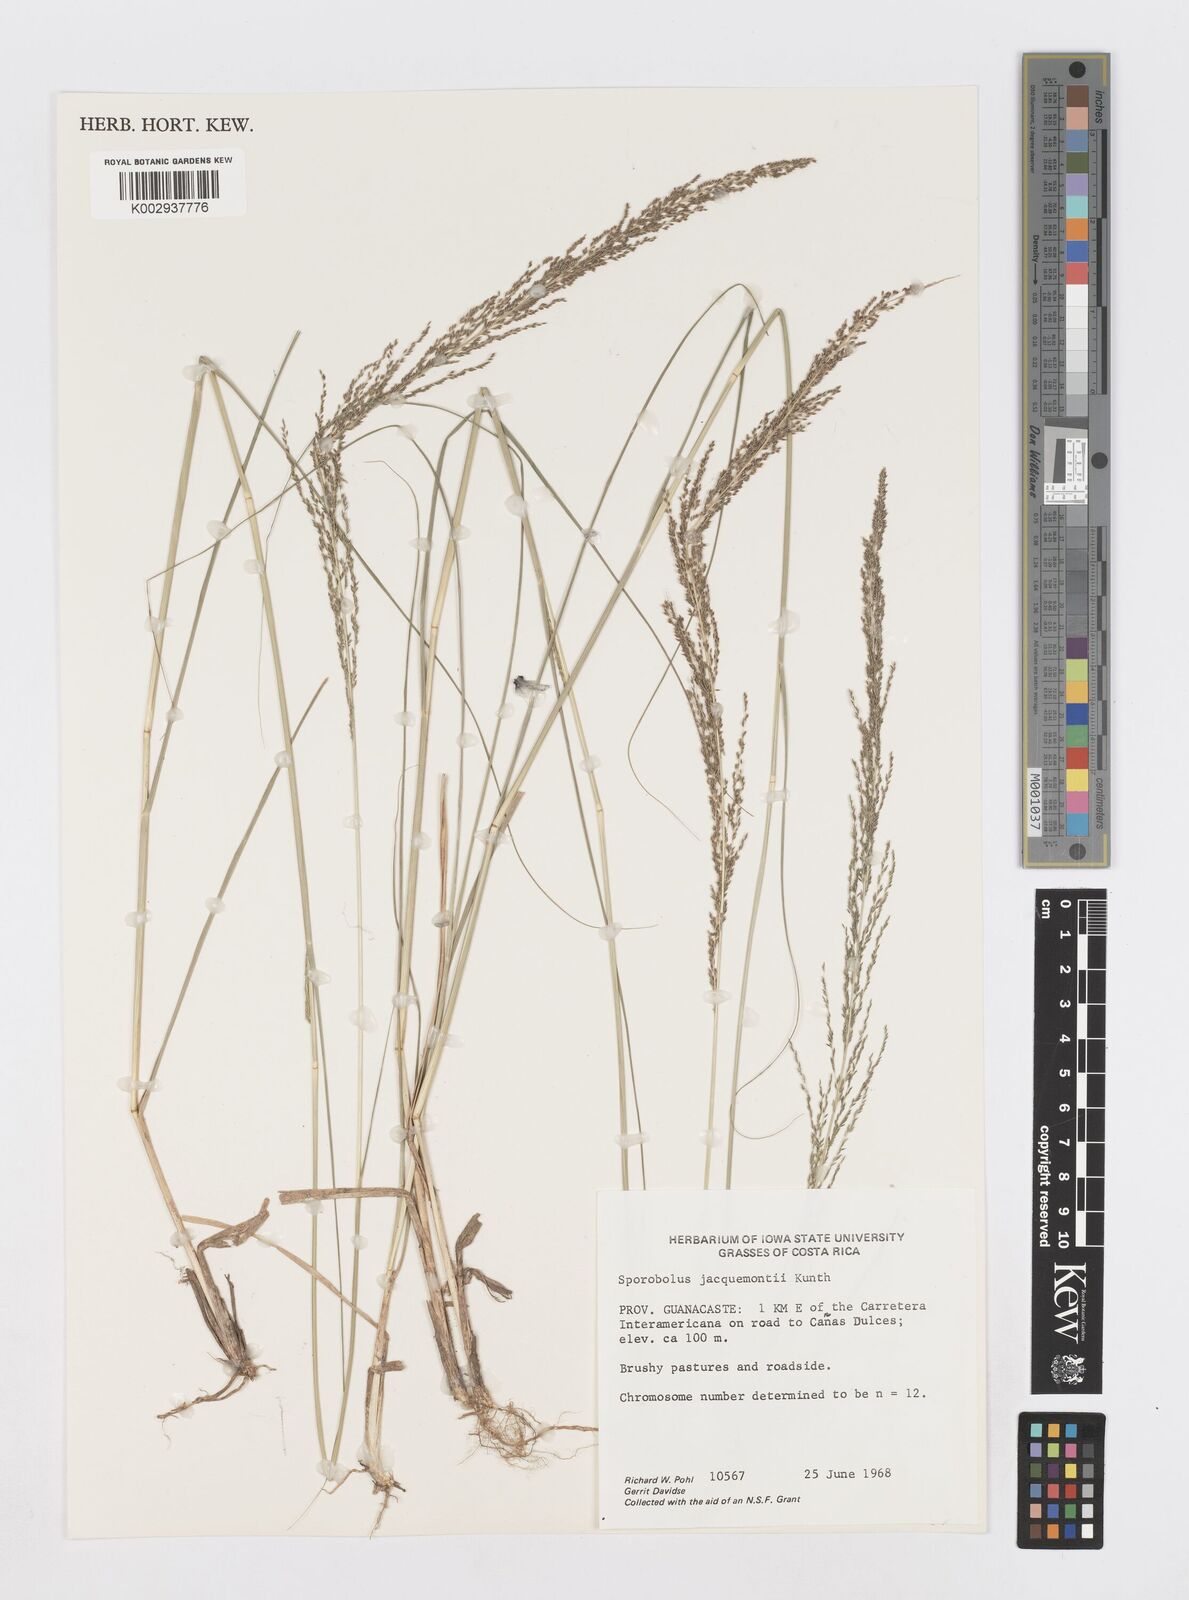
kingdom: Plantae
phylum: Tracheophyta
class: Liliopsida
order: Poales
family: Poaceae
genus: Sporobolus
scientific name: Sporobolus pyramidalis
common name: West indian dropseed
